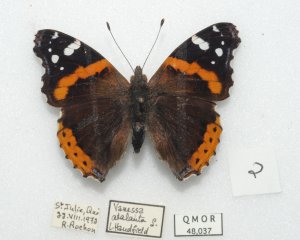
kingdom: Animalia
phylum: Arthropoda
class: Insecta
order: Lepidoptera
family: Nymphalidae
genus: Vanessa
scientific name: Vanessa atalanta
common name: Red Admiral
